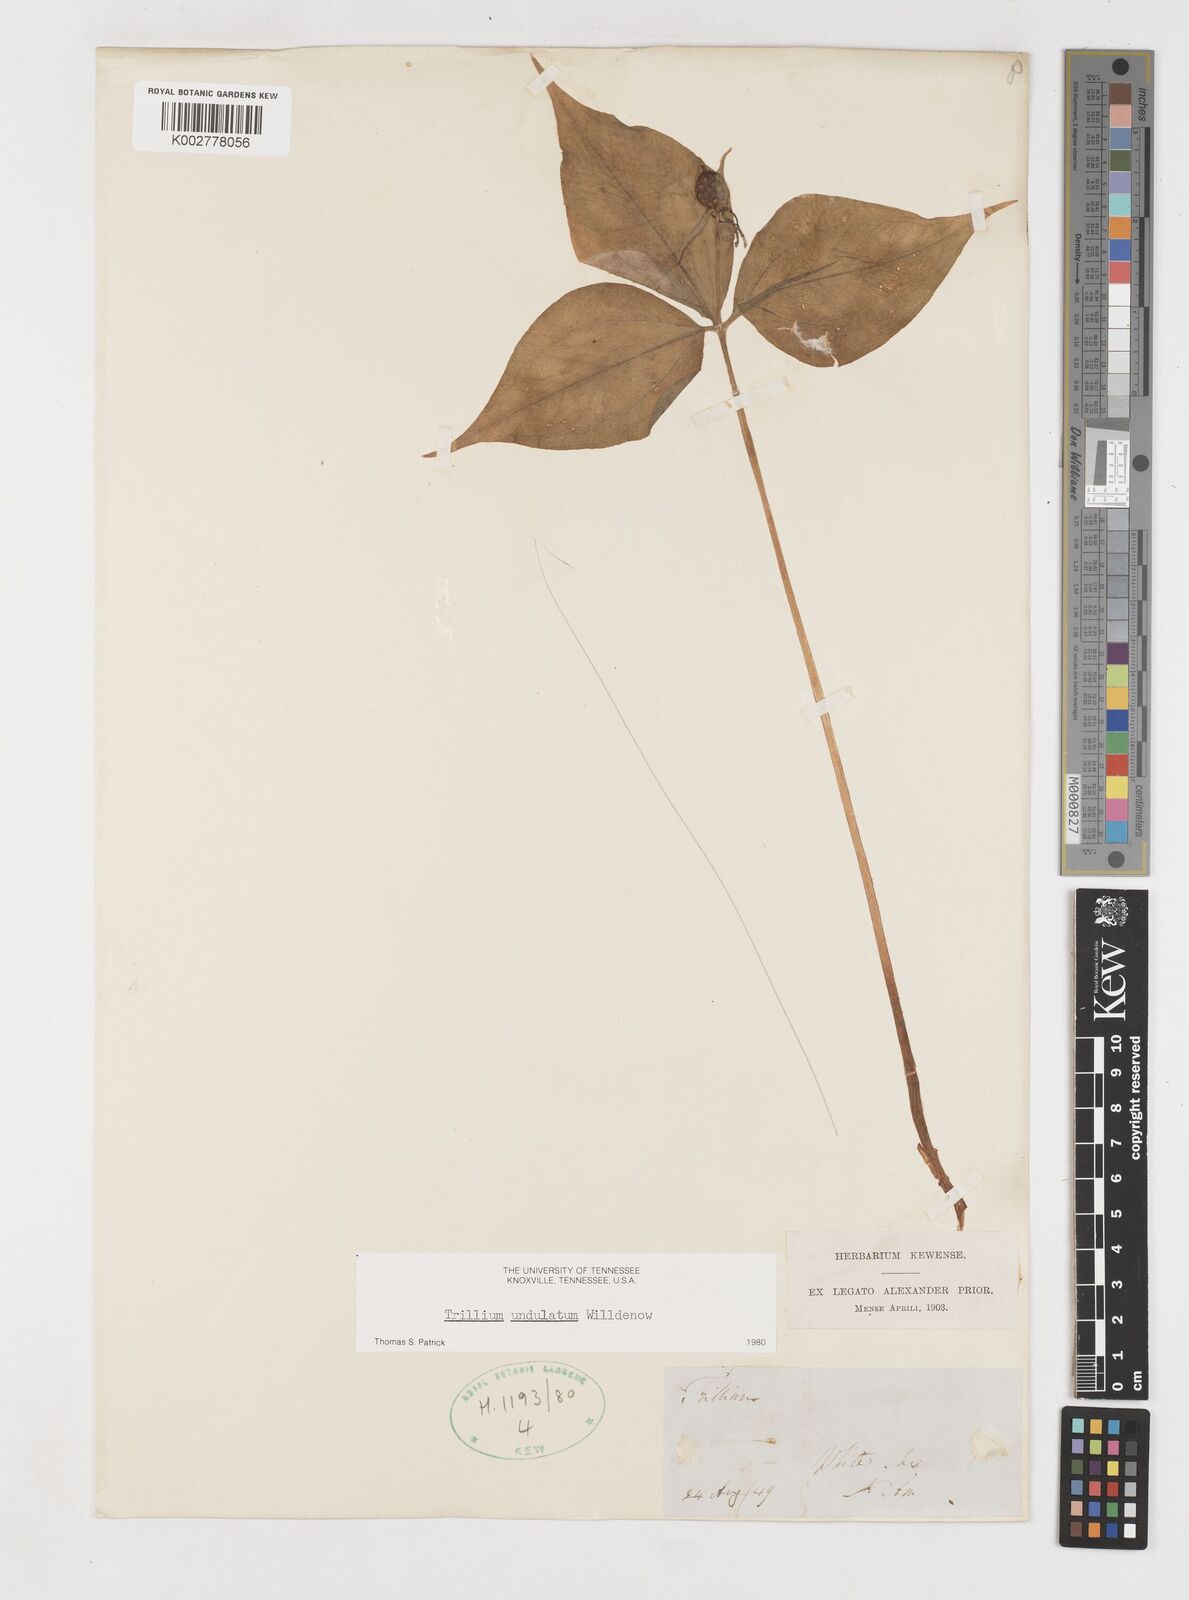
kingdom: Plantae
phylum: Tracheophyta
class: Liliopsida
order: Liliales
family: Melanthiaceae
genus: Trillium
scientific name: Trillium undulatum
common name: Paint trillium
